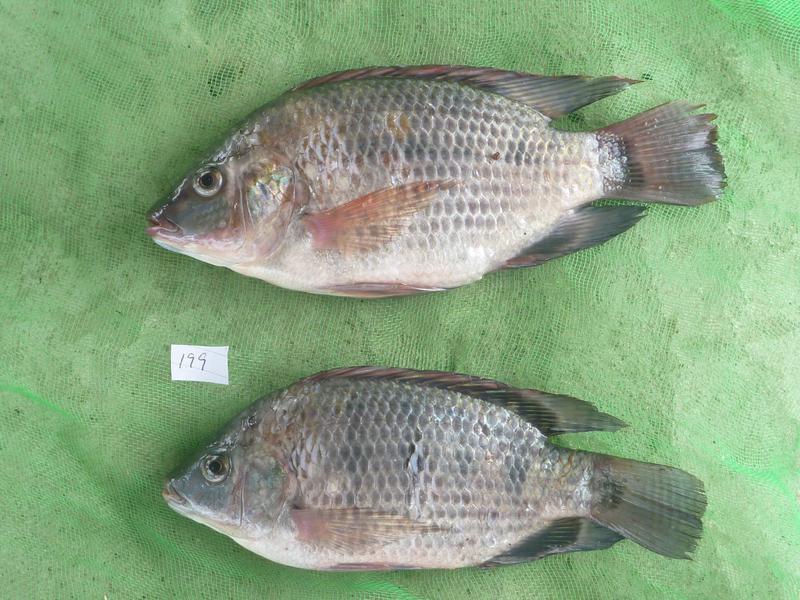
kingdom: Animalia
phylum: Chordata
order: Perciformes
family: Cichlidae
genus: Oreochromis
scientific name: Oreochromis urolepis
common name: Wami tilapia
